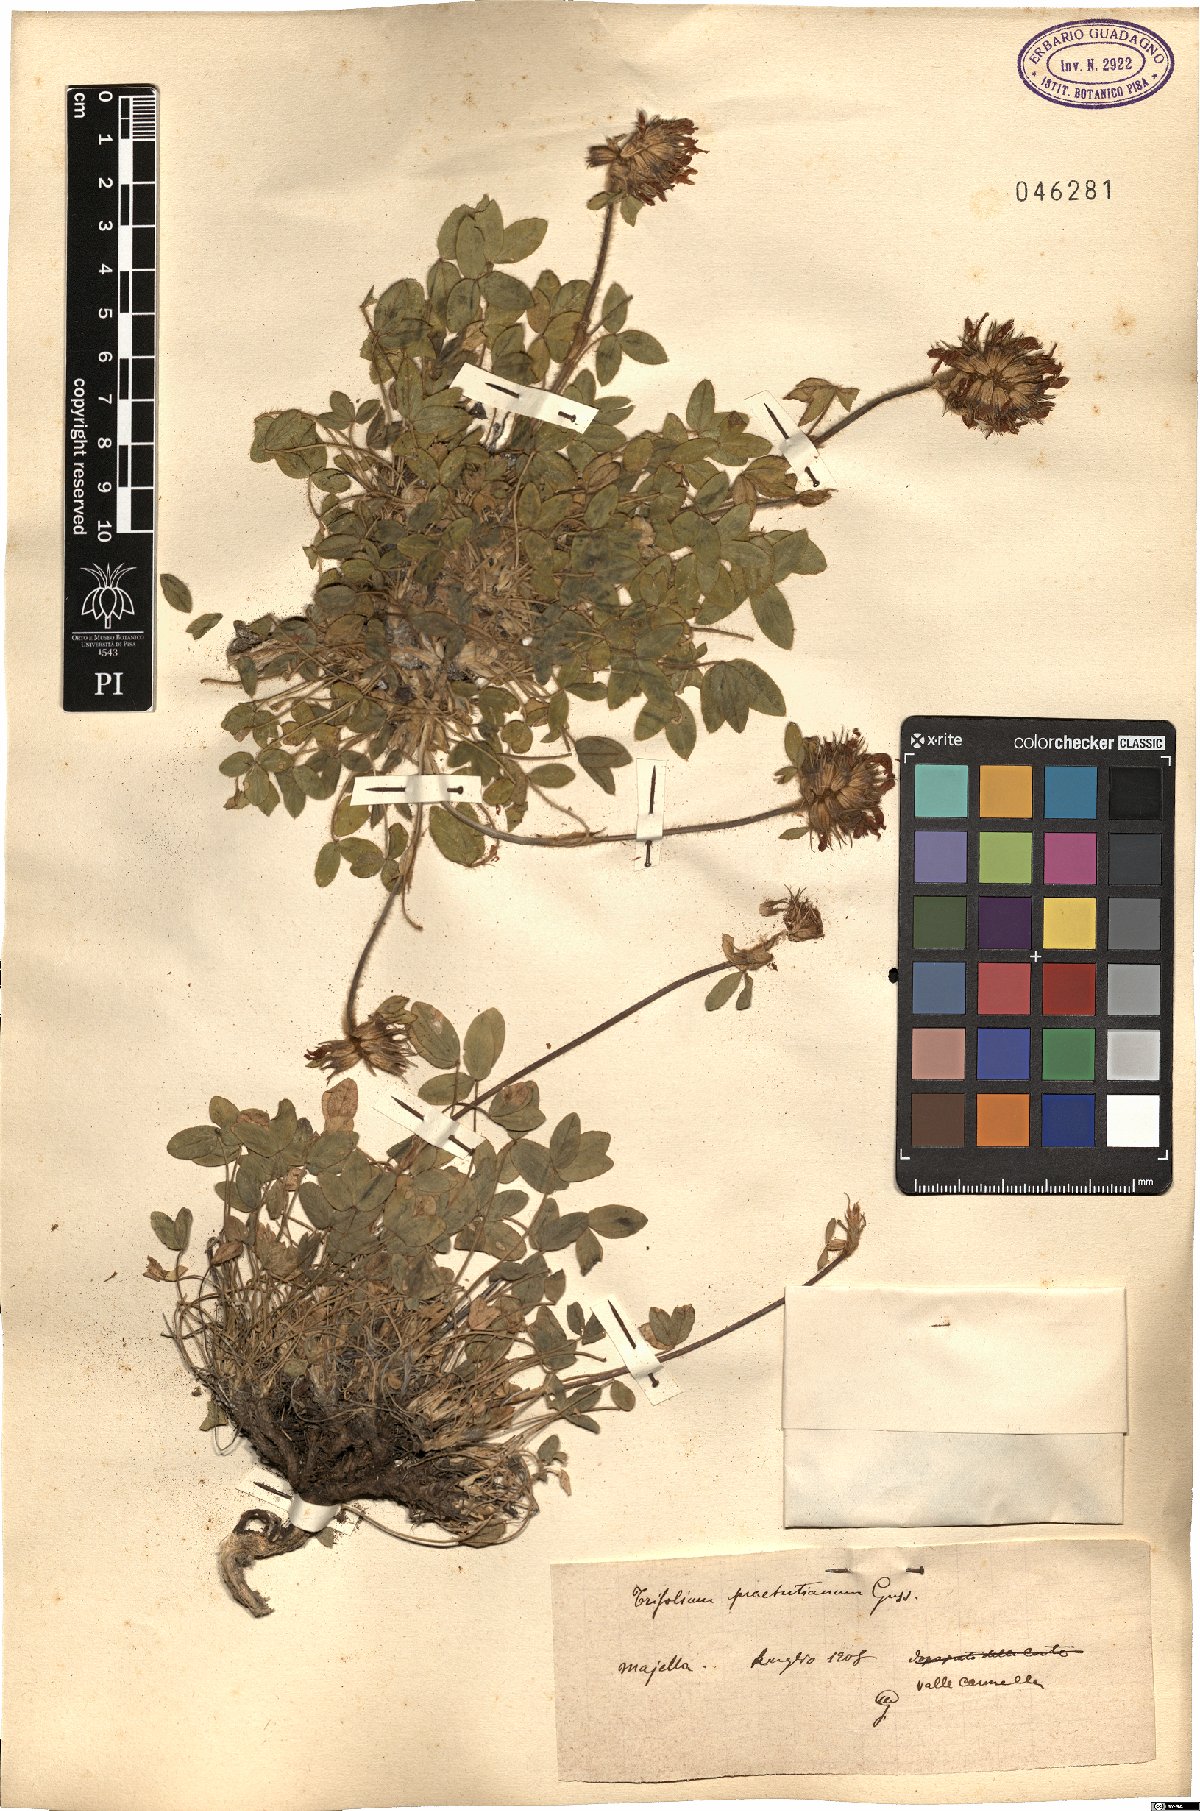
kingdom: Plantae
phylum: Tracheophyta
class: Magnoliopsida
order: Fabales
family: Fabaceae
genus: Trifolium
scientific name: Trifolium noricum
